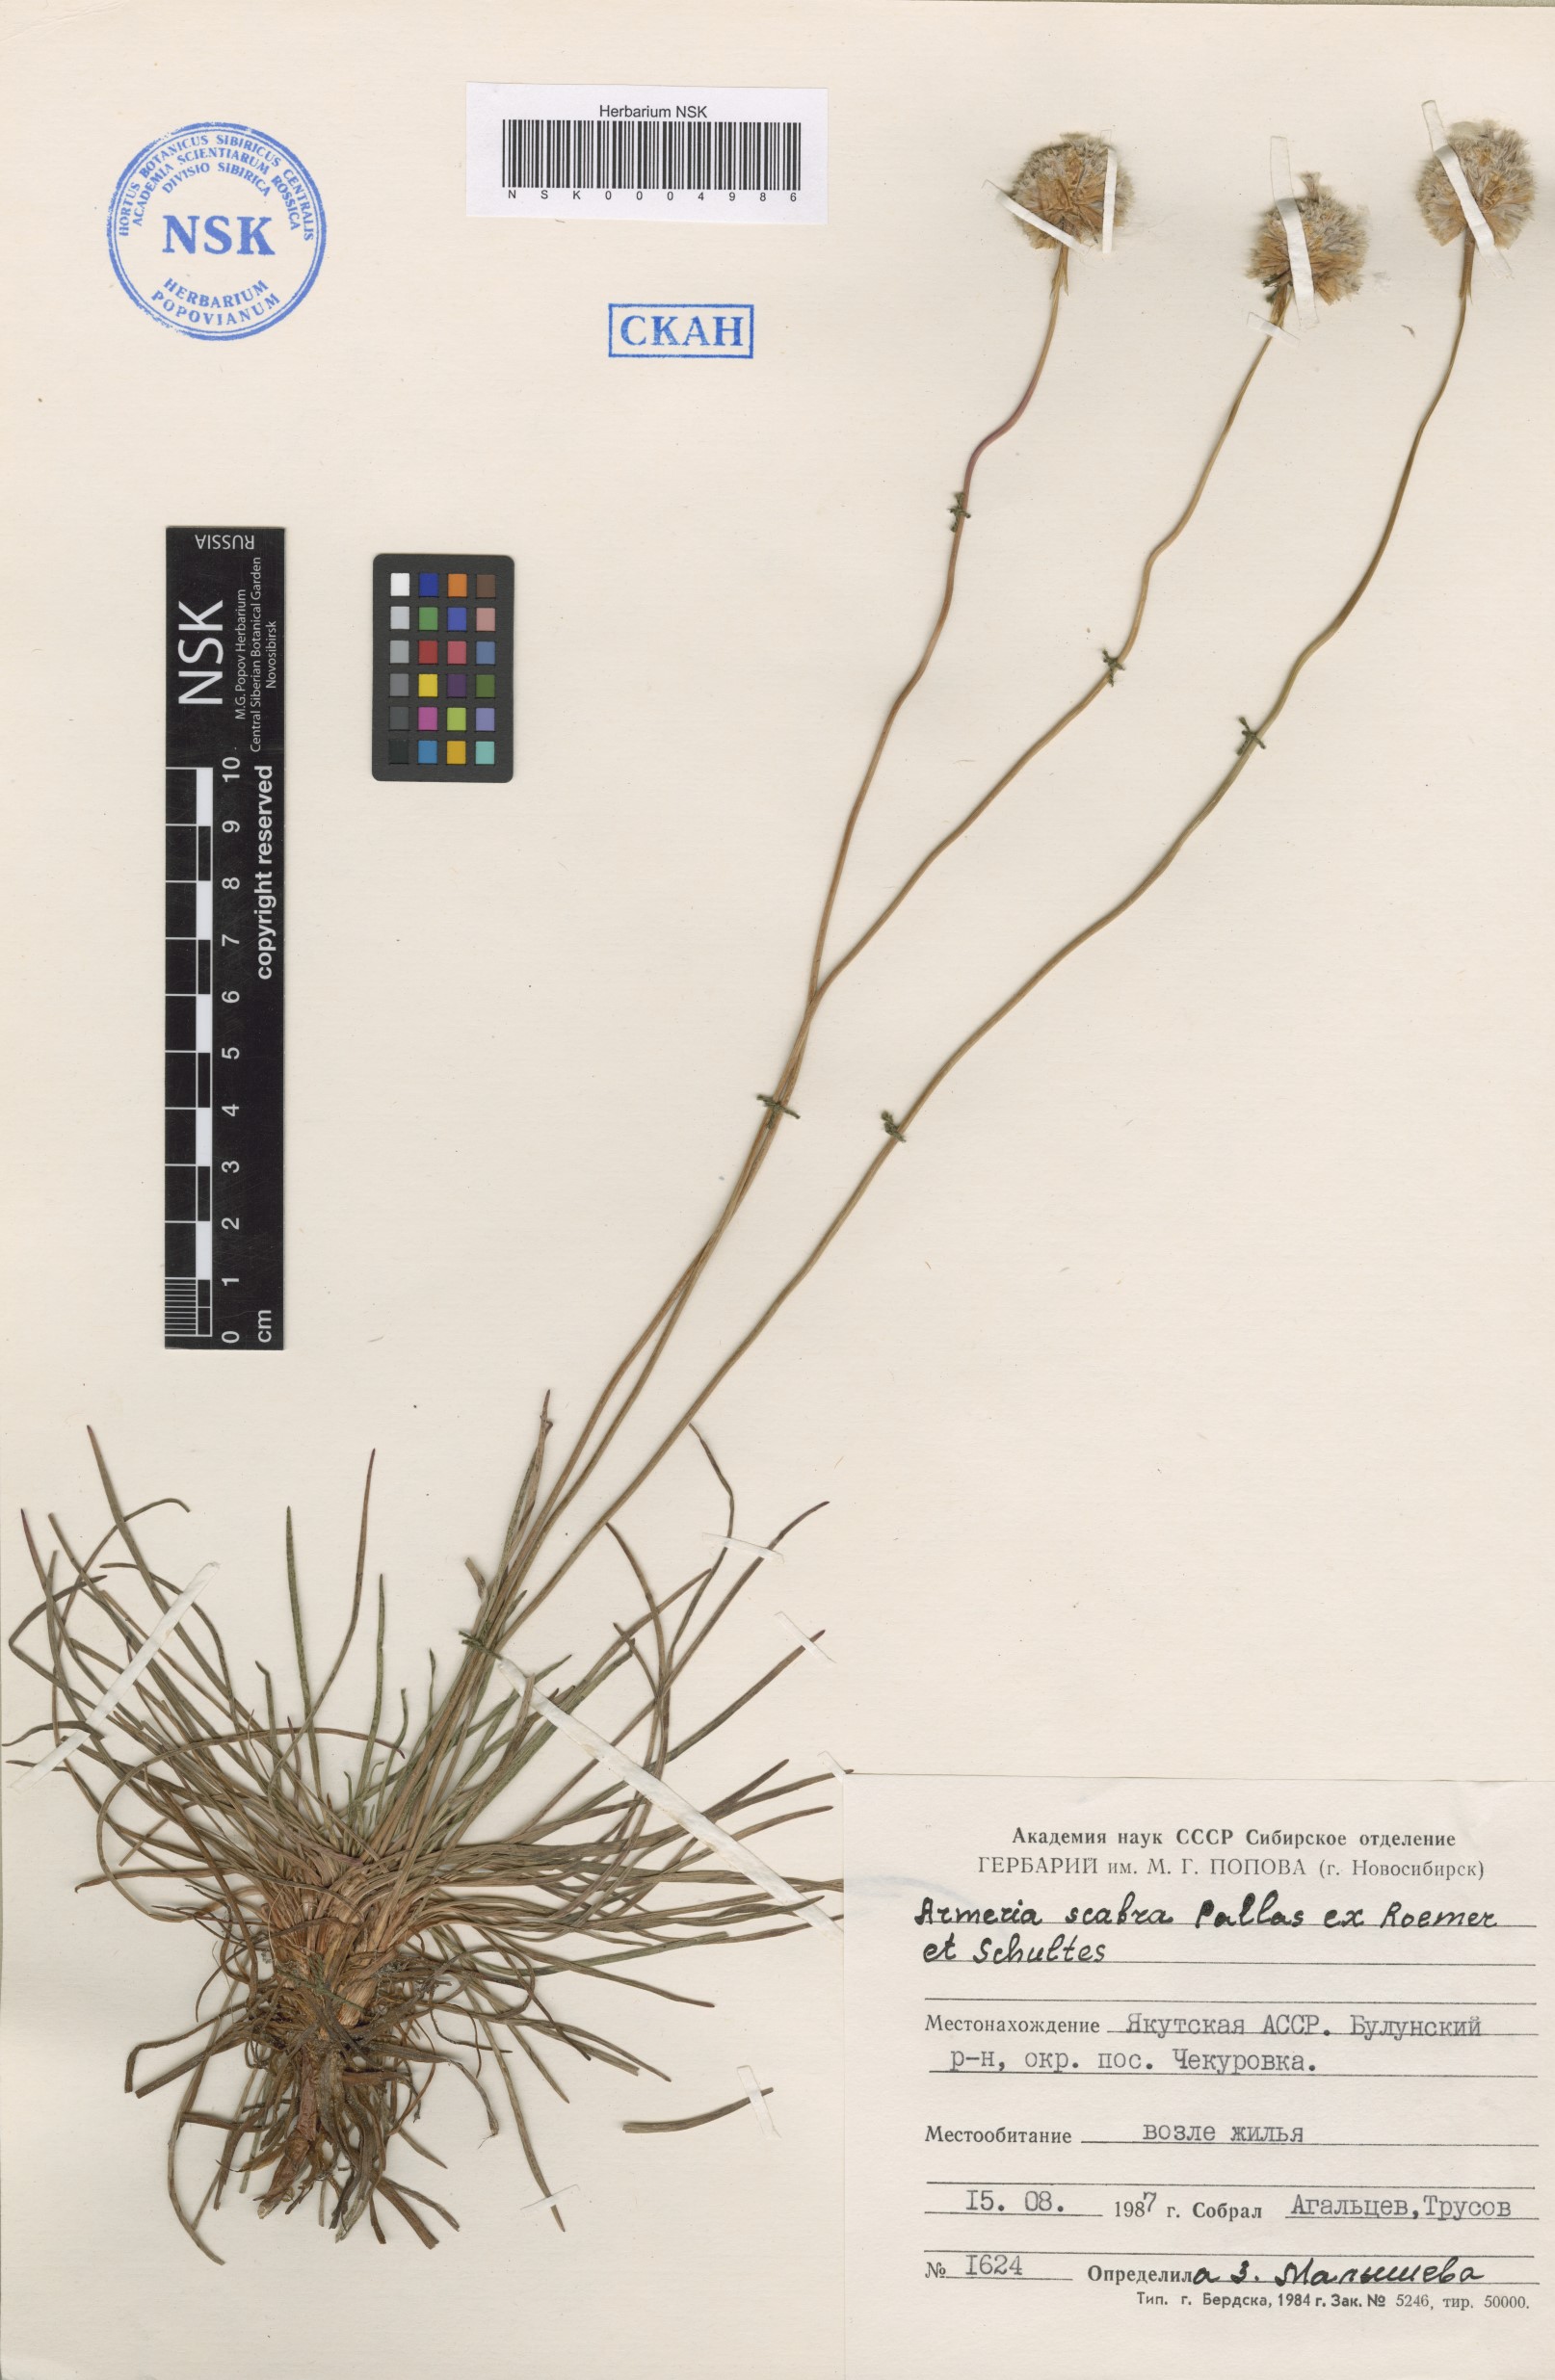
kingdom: Plantae
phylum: Tracheophyta
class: Magnoliopsida
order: Caryophyllales
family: Plumbaginaceae
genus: Armeria
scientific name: Armeria maritima
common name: Thrift
